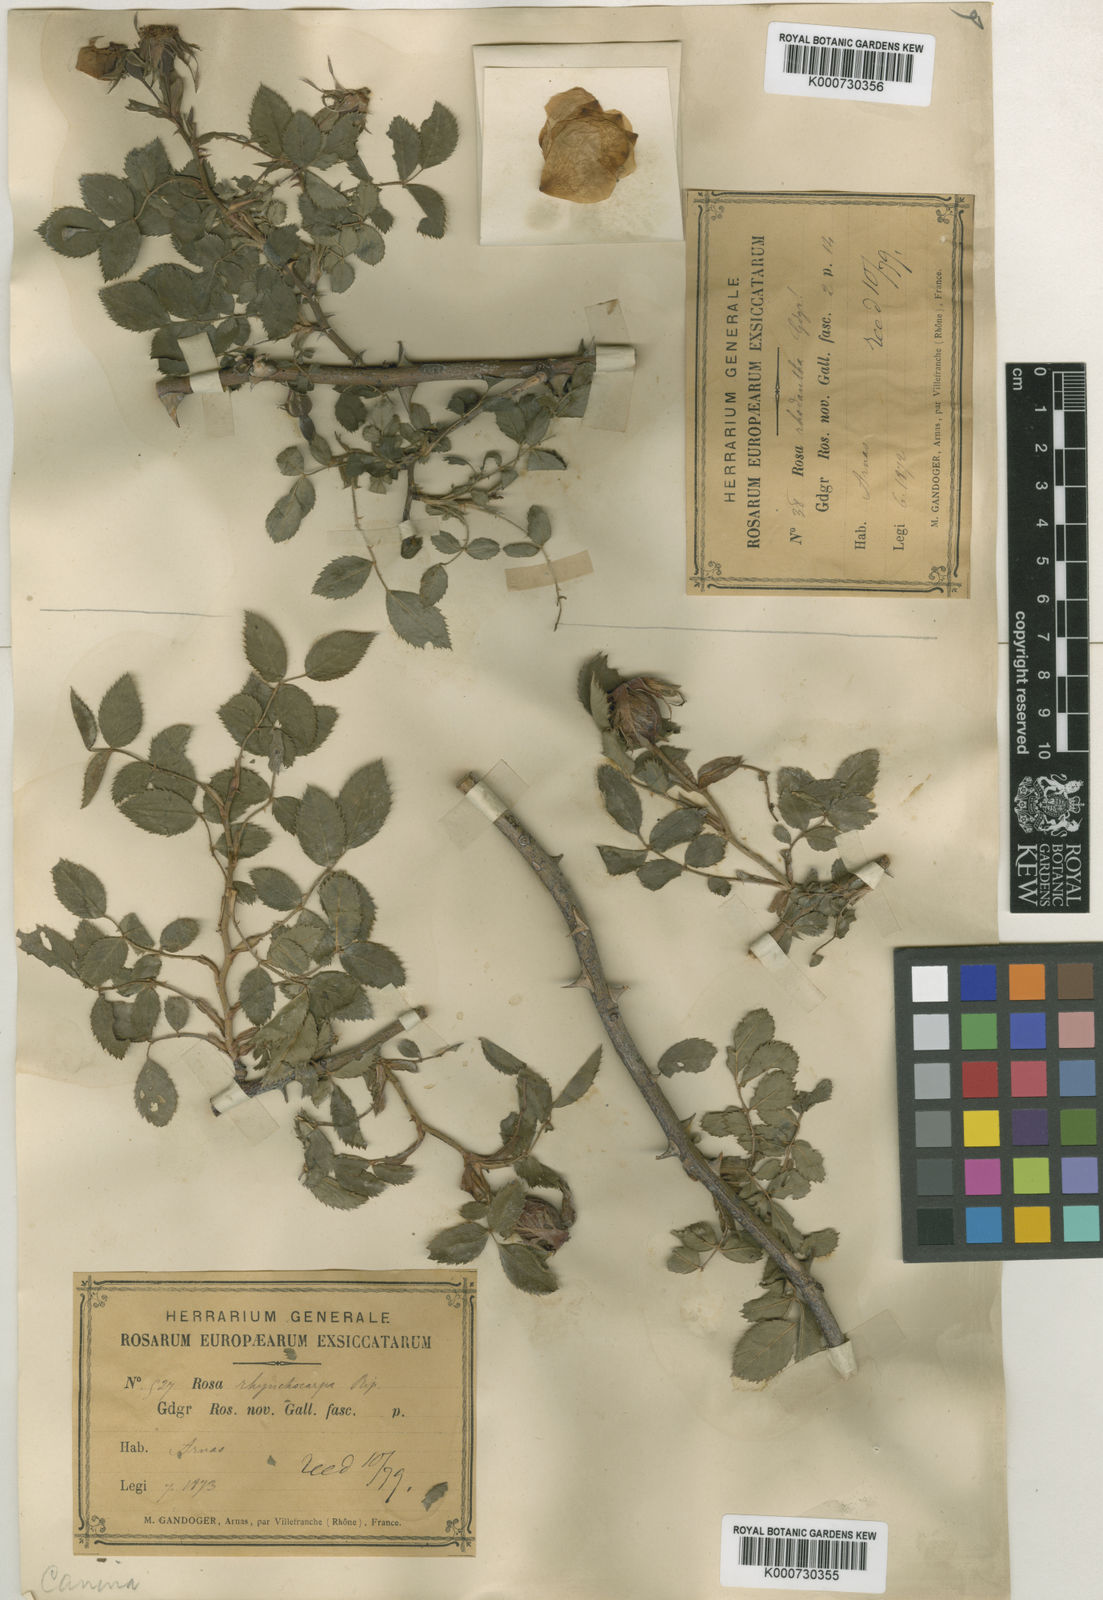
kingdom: Plantae
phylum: Tracheophyta
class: Magnoliopsida
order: Rosales
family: Rosaceae
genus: Rosa
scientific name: Rosa canina
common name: Dog rose
